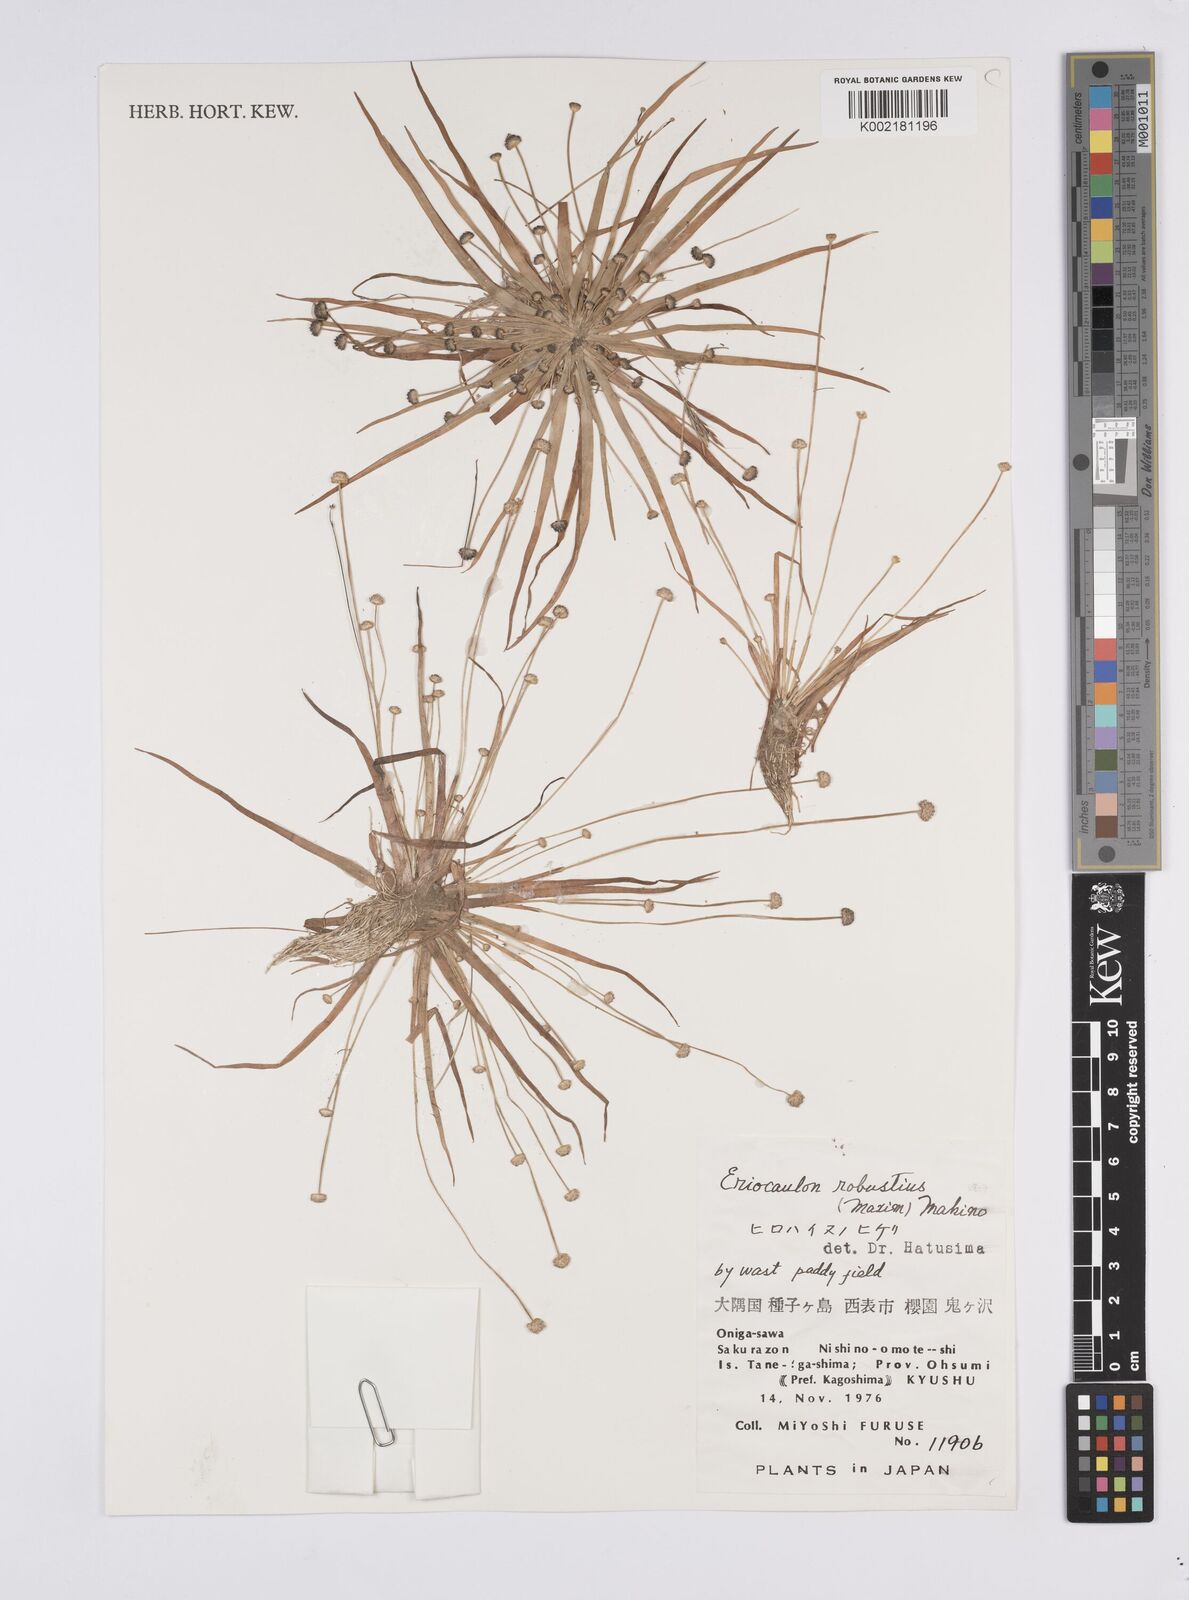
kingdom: Plantae
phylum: Tracheophyta
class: Liliopsida
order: Poales
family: Eriocaulaceae
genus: Eriocaulon
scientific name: Eriocaulon alpestre
